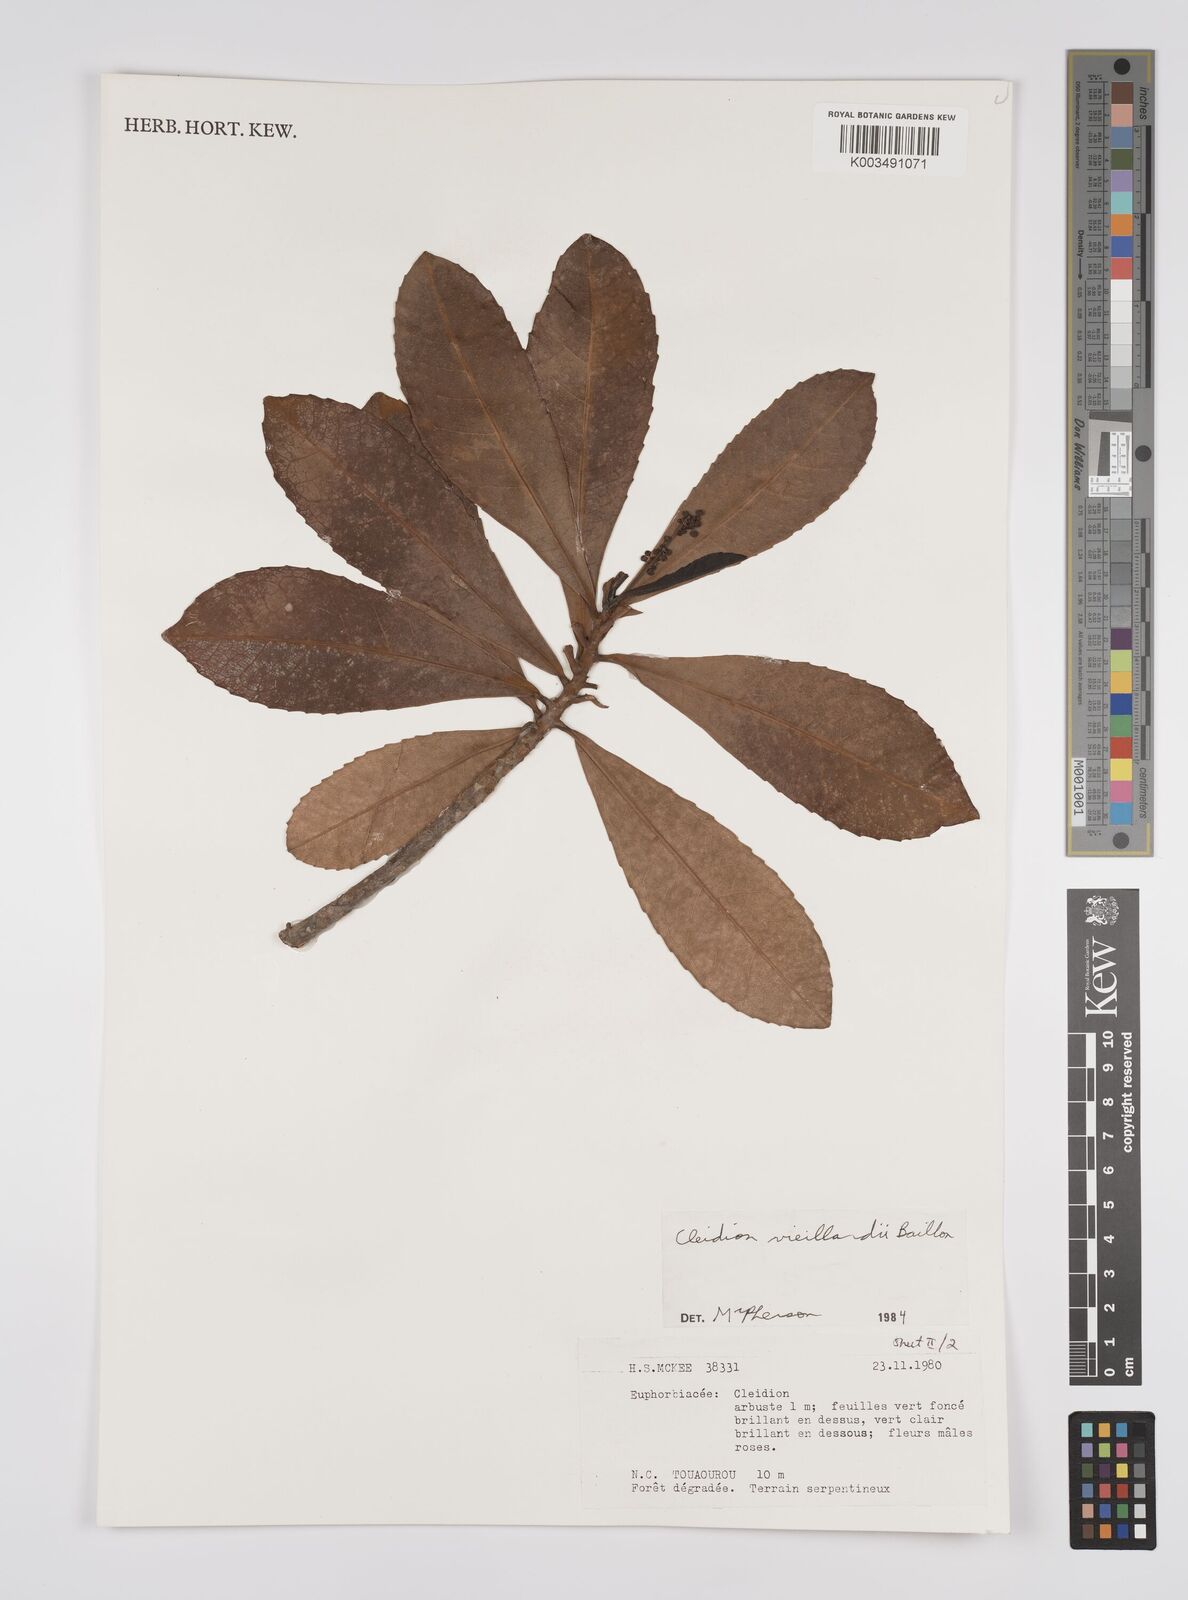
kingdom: Plantae
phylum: Tracheophyta
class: Magnoliopsida
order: Malpighiales
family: Euphorbiaceae
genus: Cleidion
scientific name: Cleidion vieillardii
